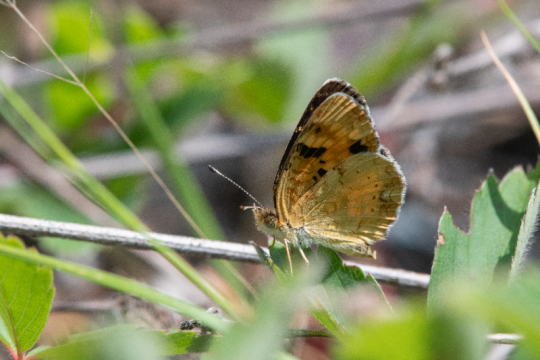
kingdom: Animalia
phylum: Arthropoda
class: Insecta
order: Lepidoptera
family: Nymphalidae
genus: Phyciodes
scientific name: Phyciodes batesii
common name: Tawny Crescent
